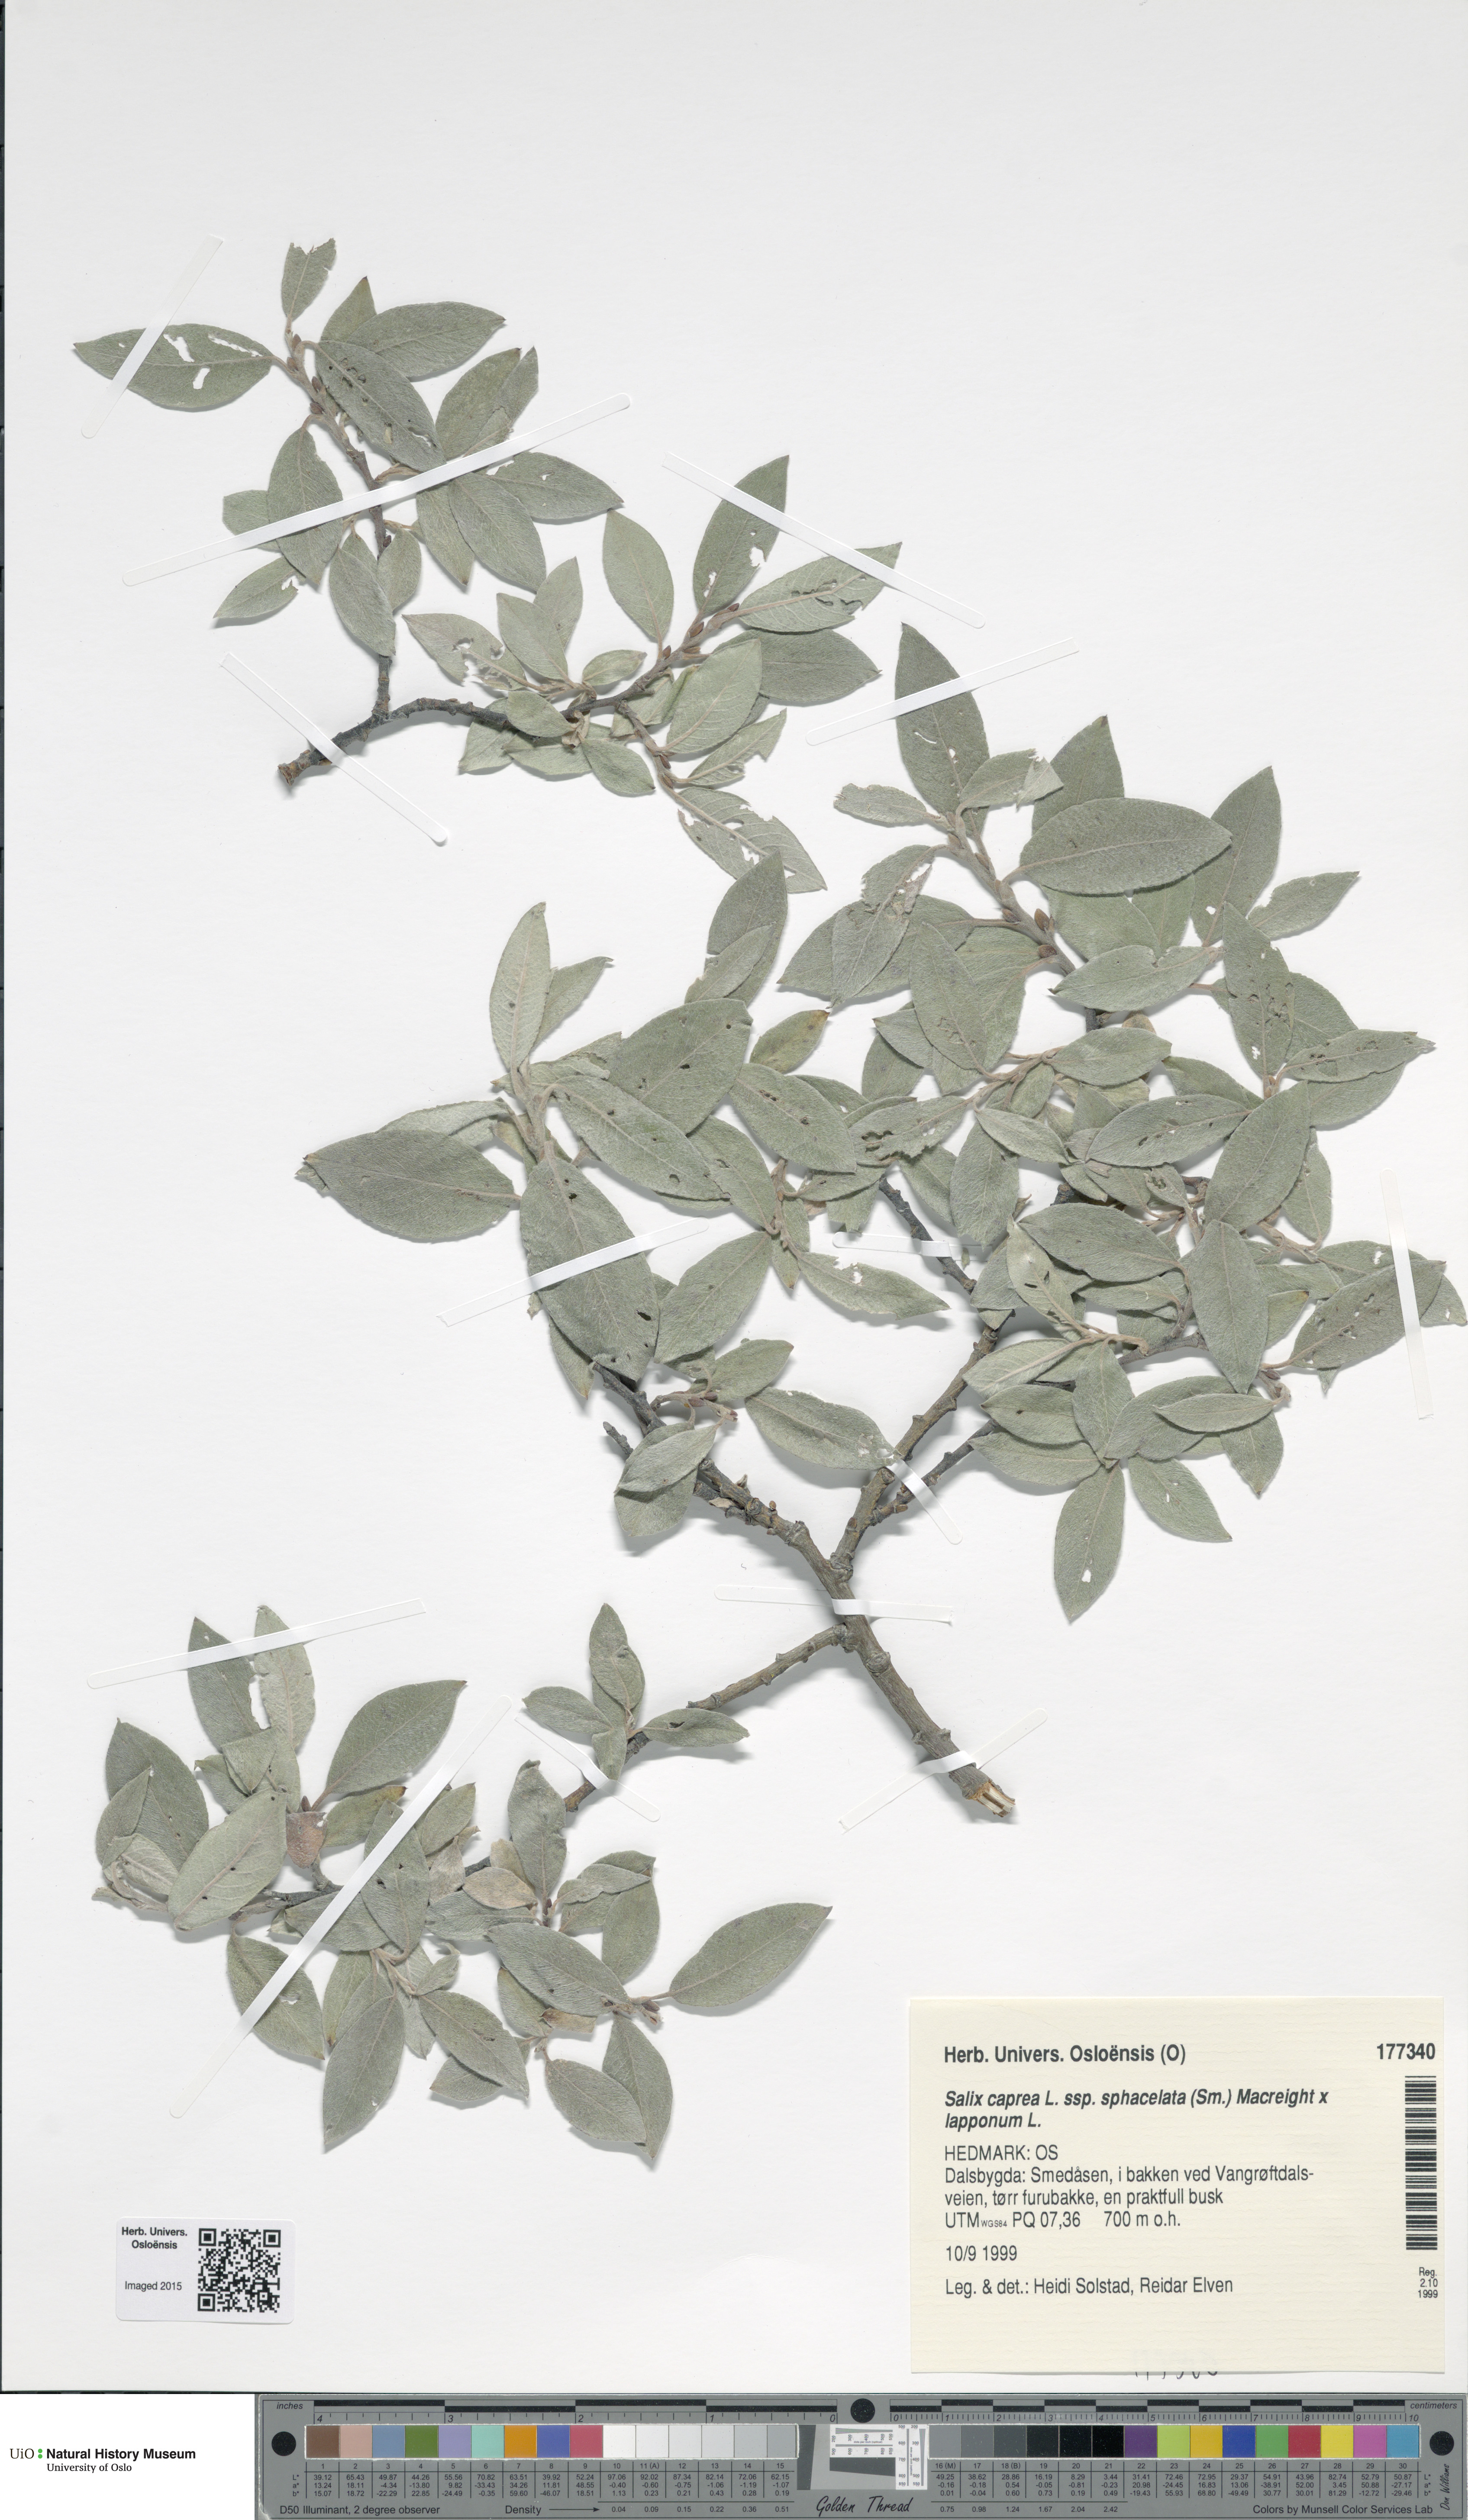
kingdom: Plantae
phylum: Tracheophyta
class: Magnoliopsida
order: Malpighiales
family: Salicaceae
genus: Salix
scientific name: Salix
